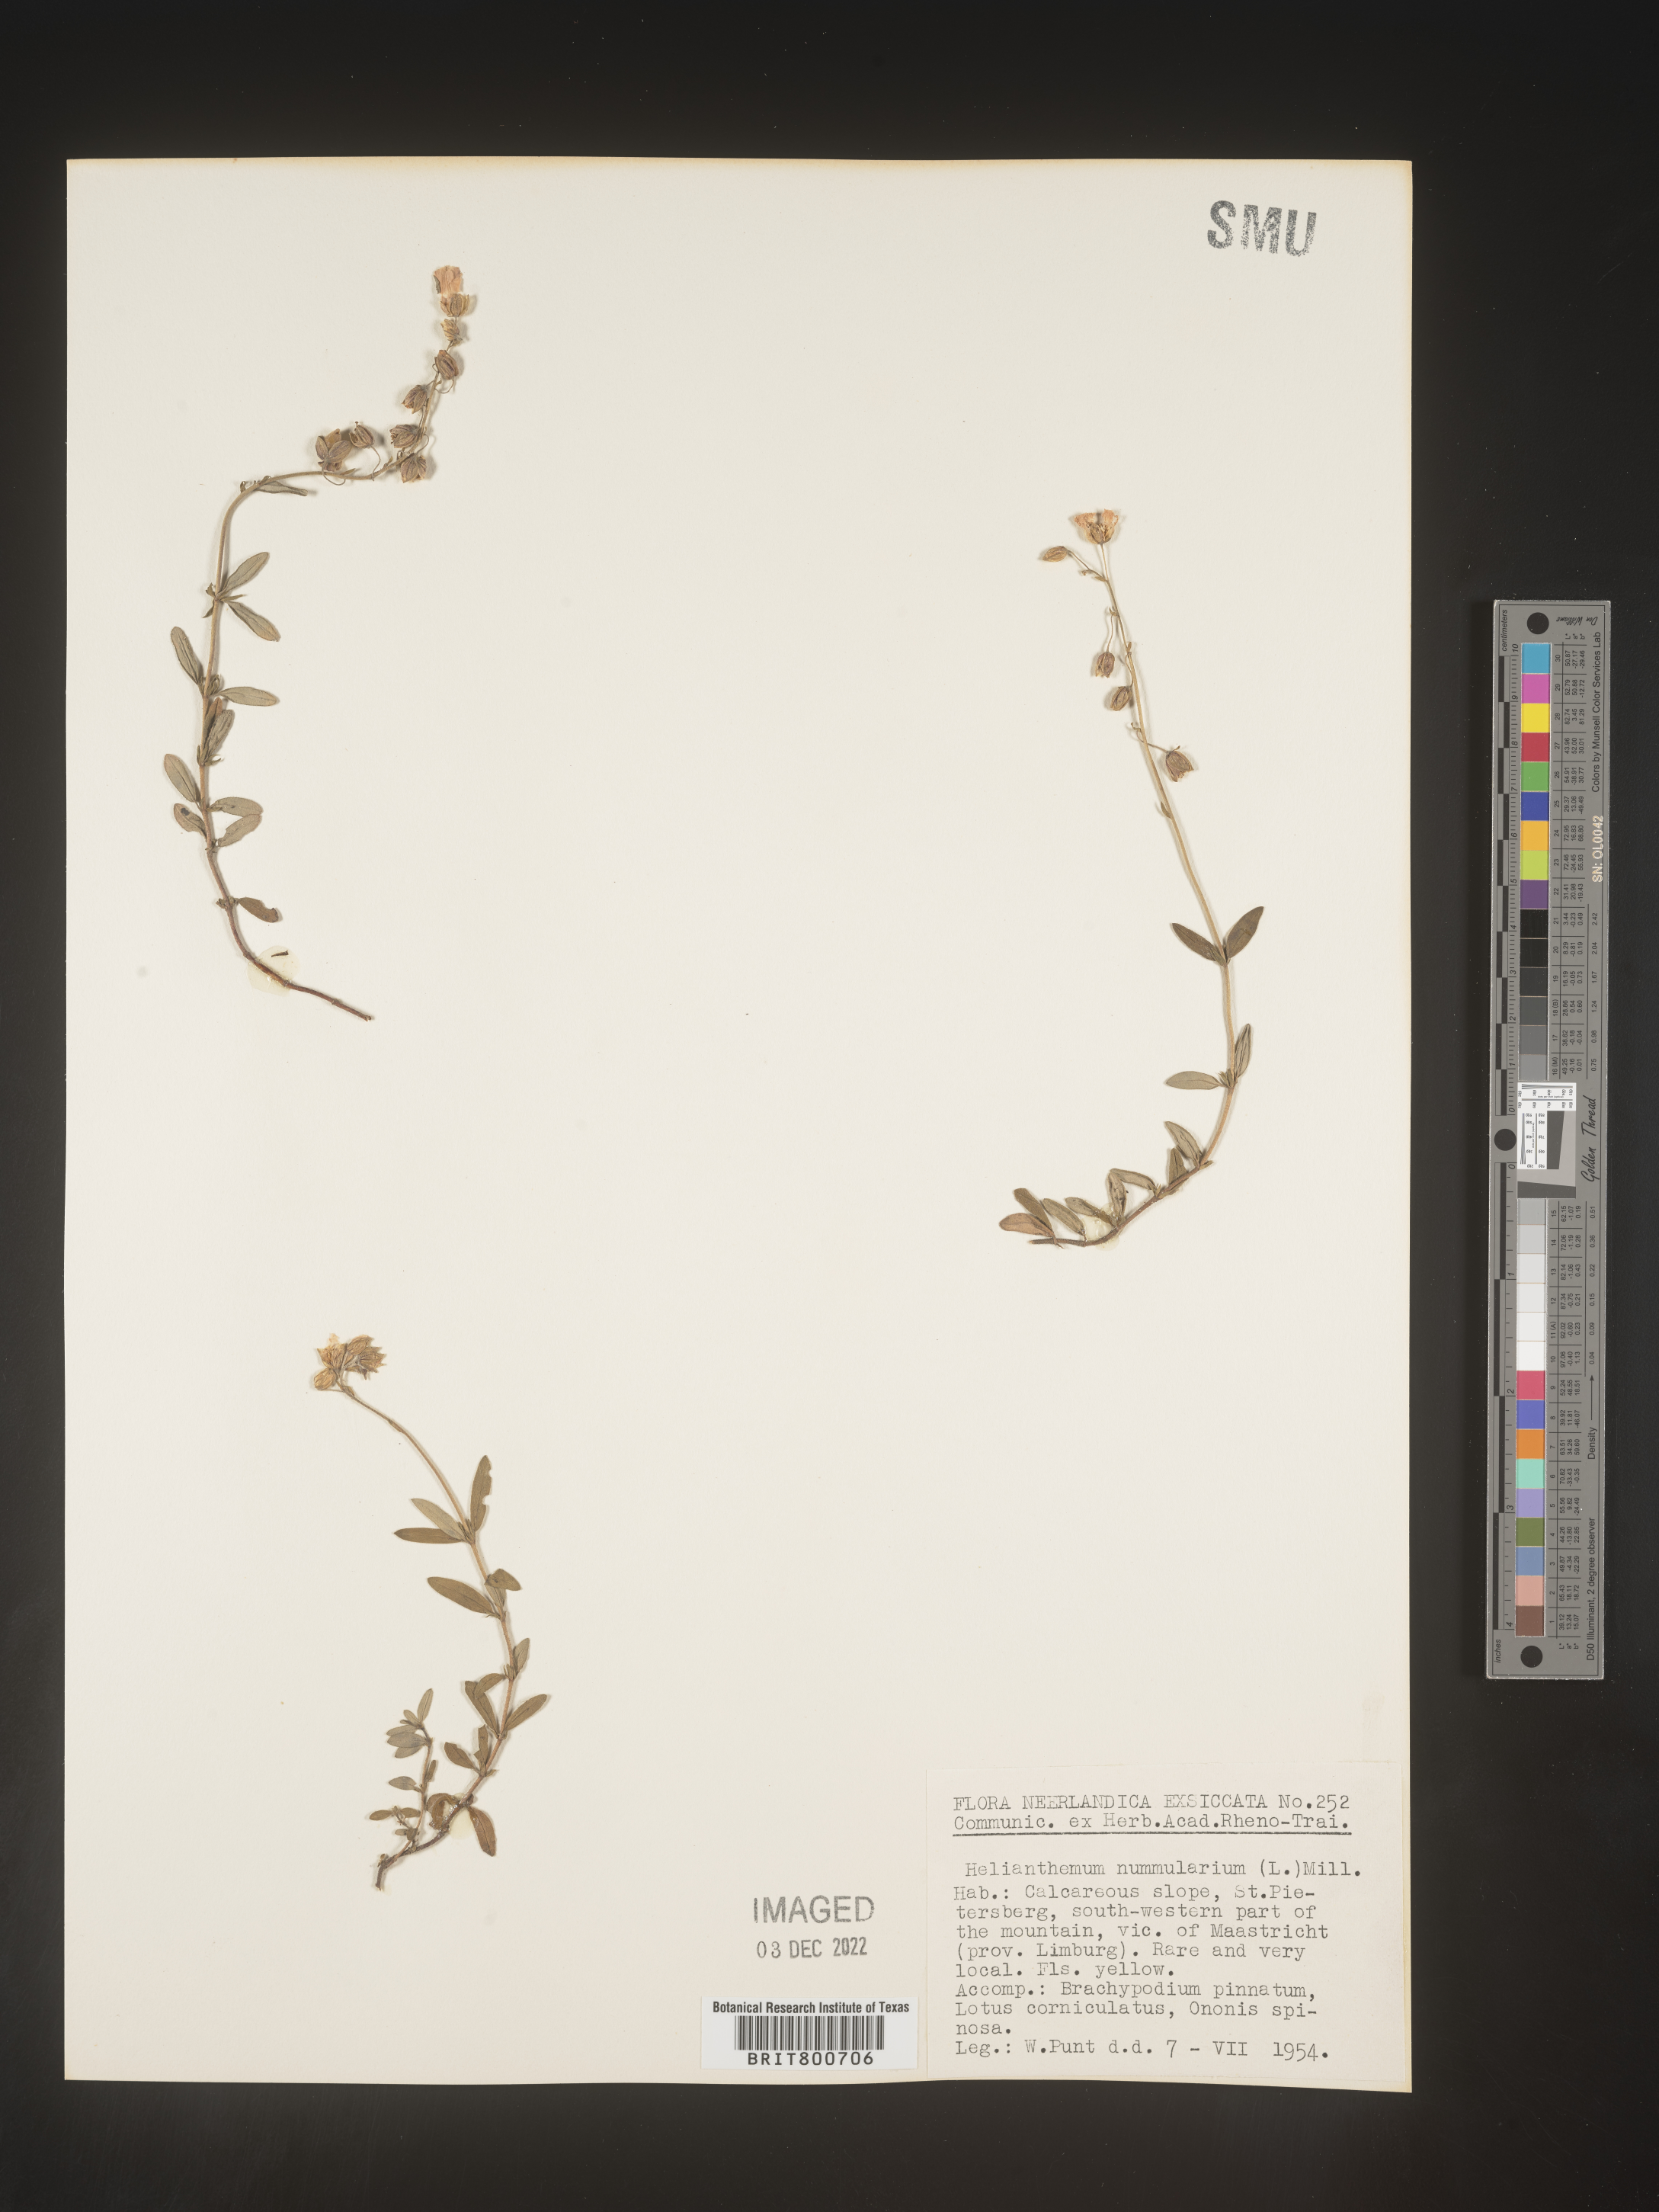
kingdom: Plantae
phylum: Tracheophyta
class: Magnoliopsida
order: Malvales
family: Cistaceae
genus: Helianthemum
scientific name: Helianthemum
